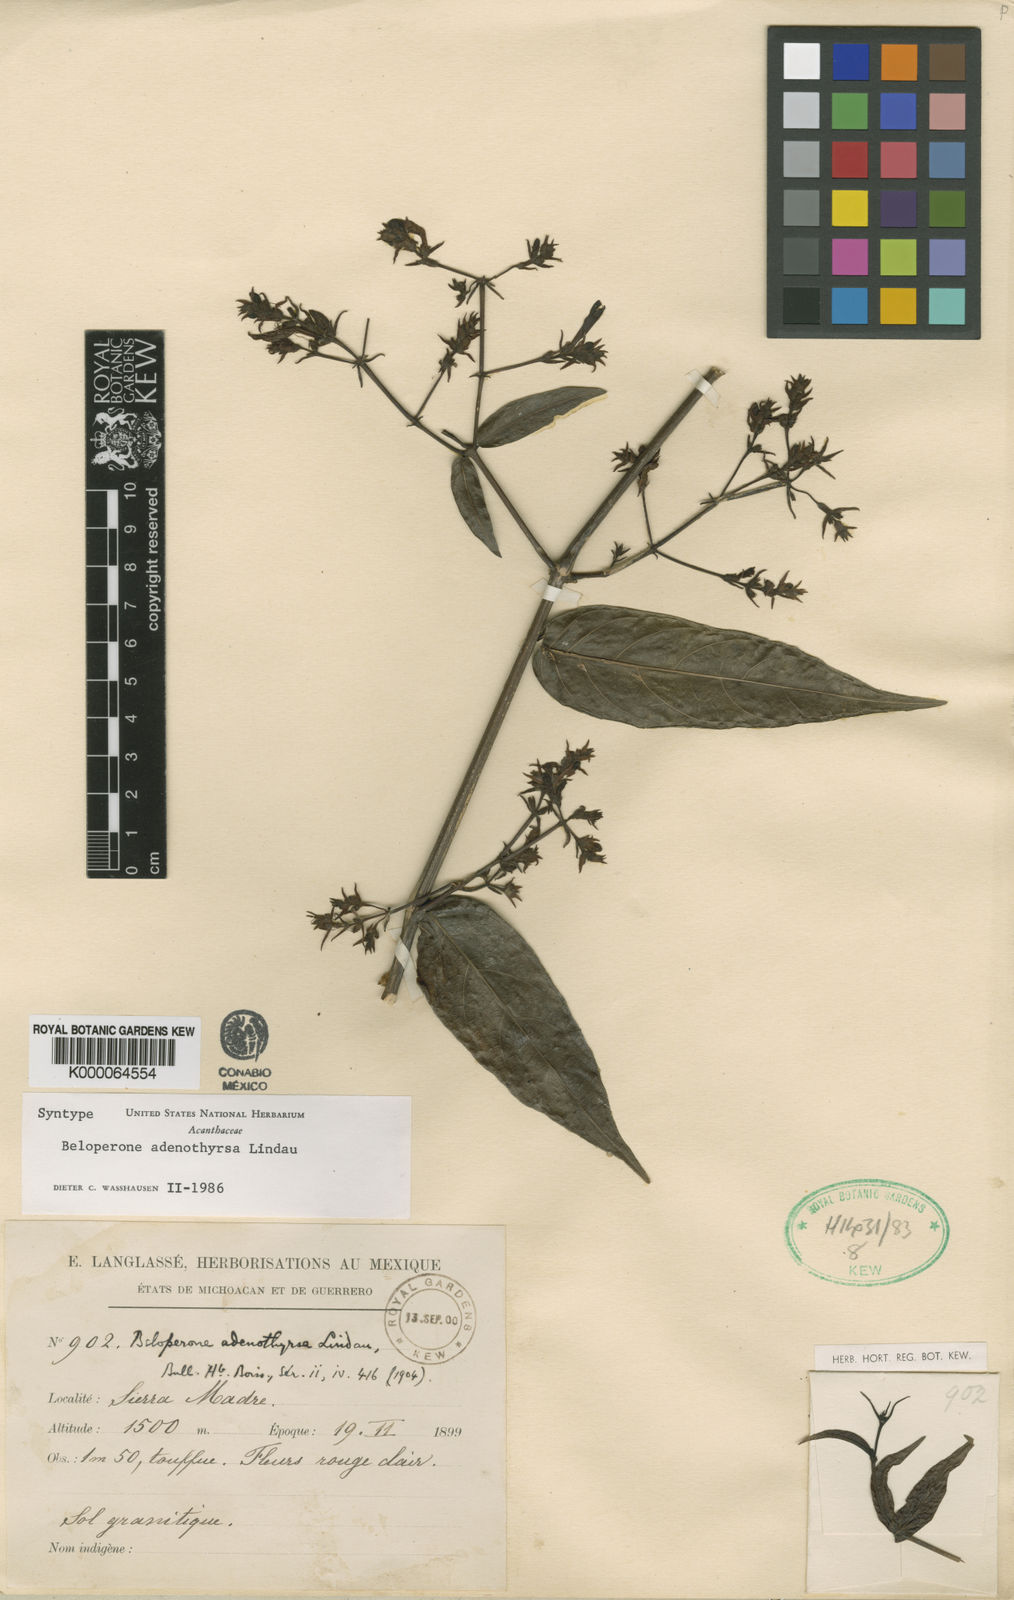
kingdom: Plantae
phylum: Tracheophyta
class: Magnoliopsida
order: Lamiales
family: Acanthaceae
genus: Justicia
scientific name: Justicia adenothyrsa
